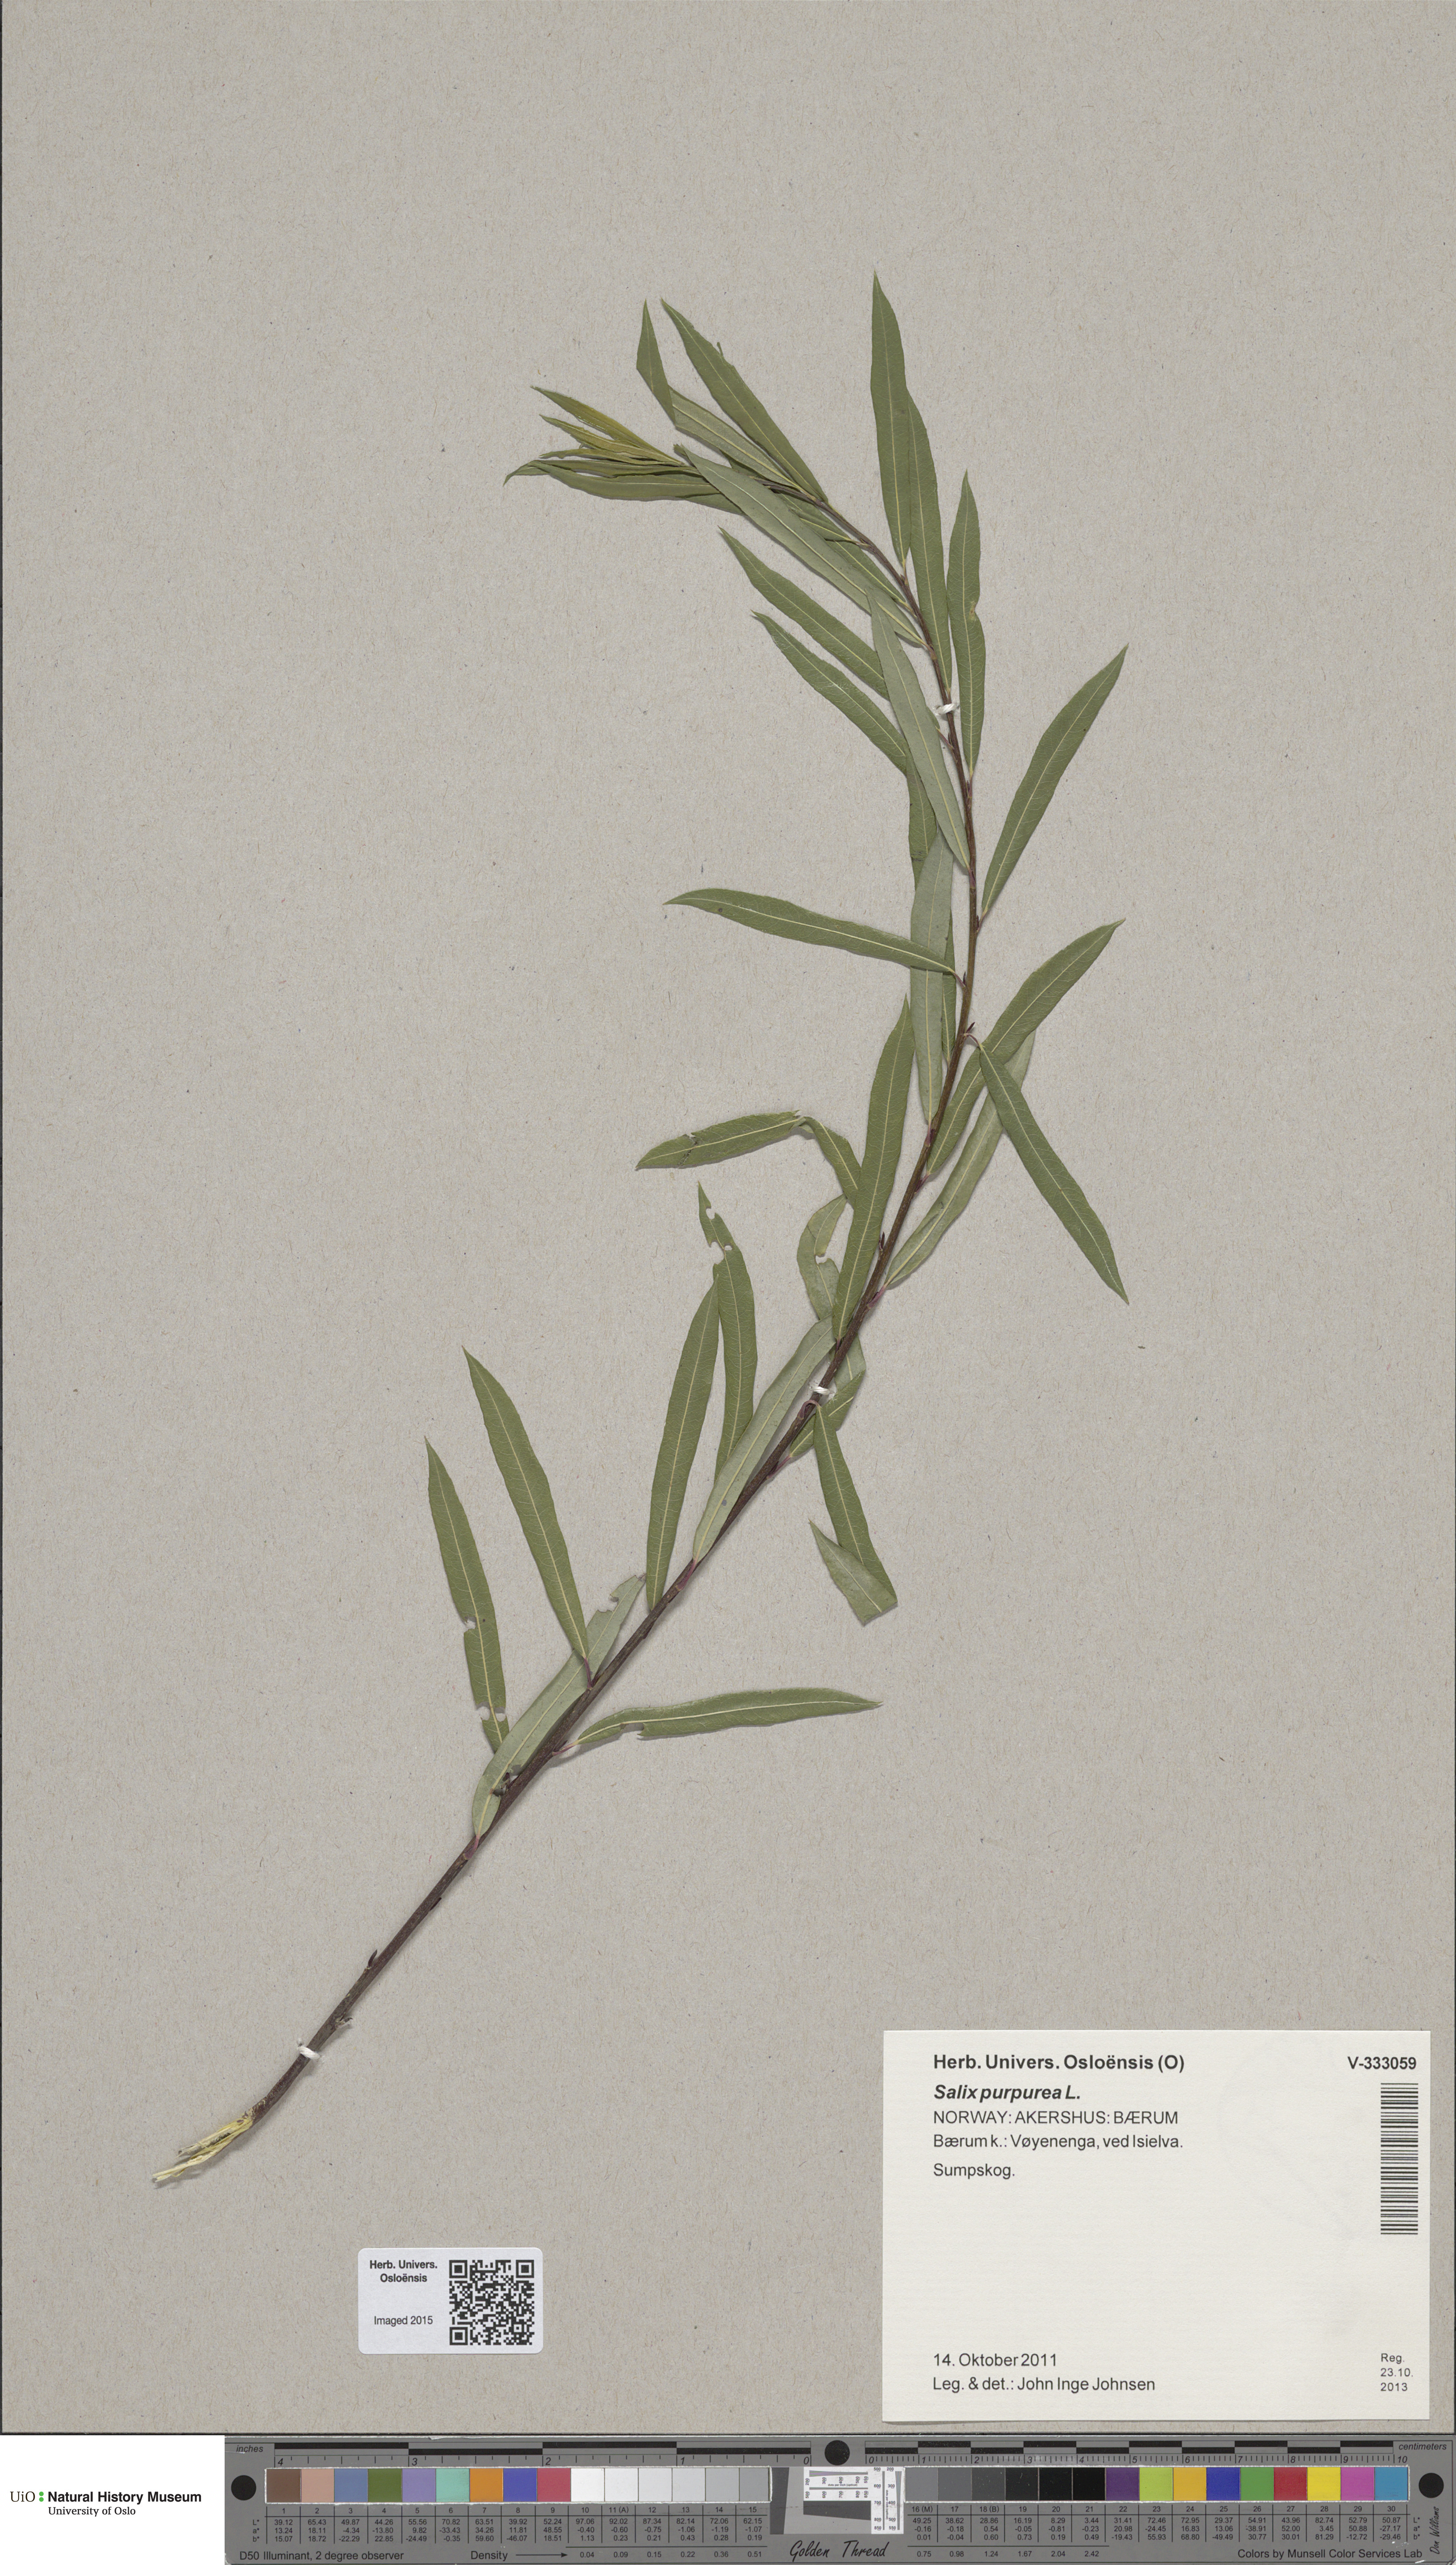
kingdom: Plantae
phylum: Tracheophyta
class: Magnoliopsida
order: Malpighiales
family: Salicaceae
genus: Salix
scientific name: Salix purpurea
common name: Purple willow
